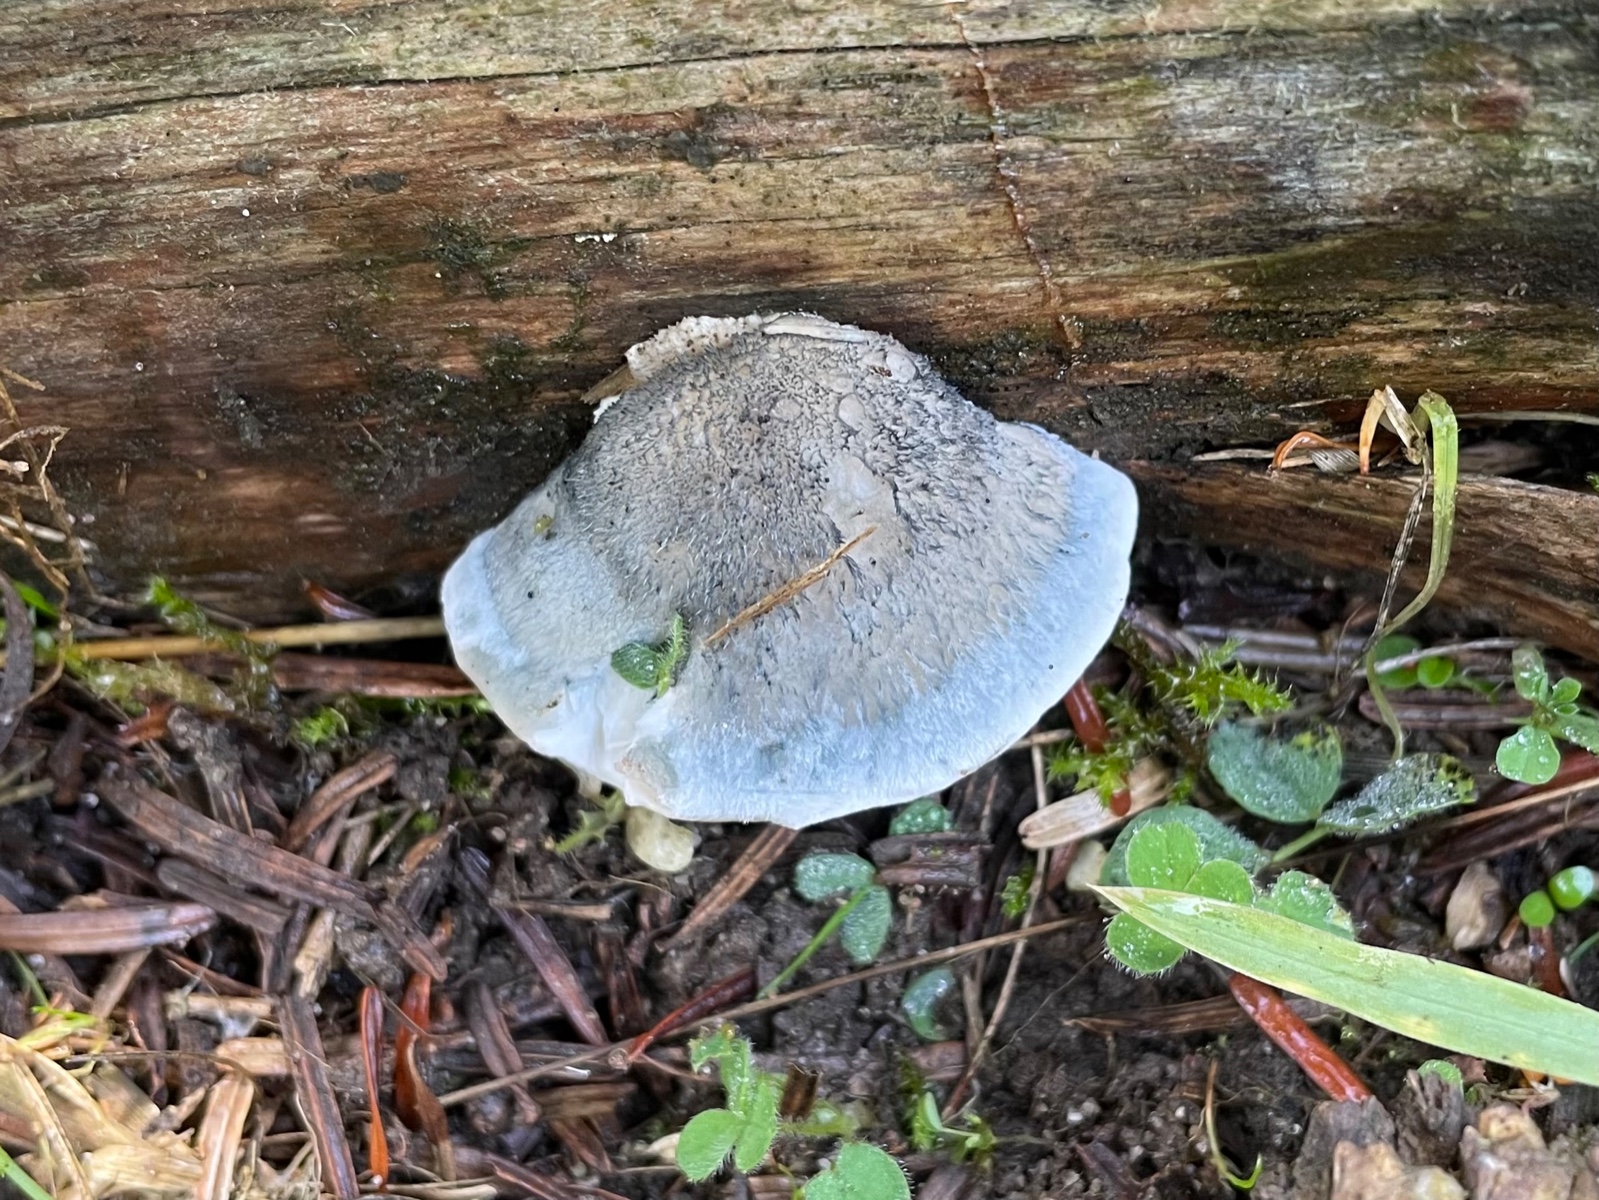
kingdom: Fungi
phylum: Basidiomycota
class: Agaricomycetes
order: Polyporales
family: Polyporaceae
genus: Cyanosporus
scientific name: Cyanosporus caesius
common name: blålig kødporesvamp
